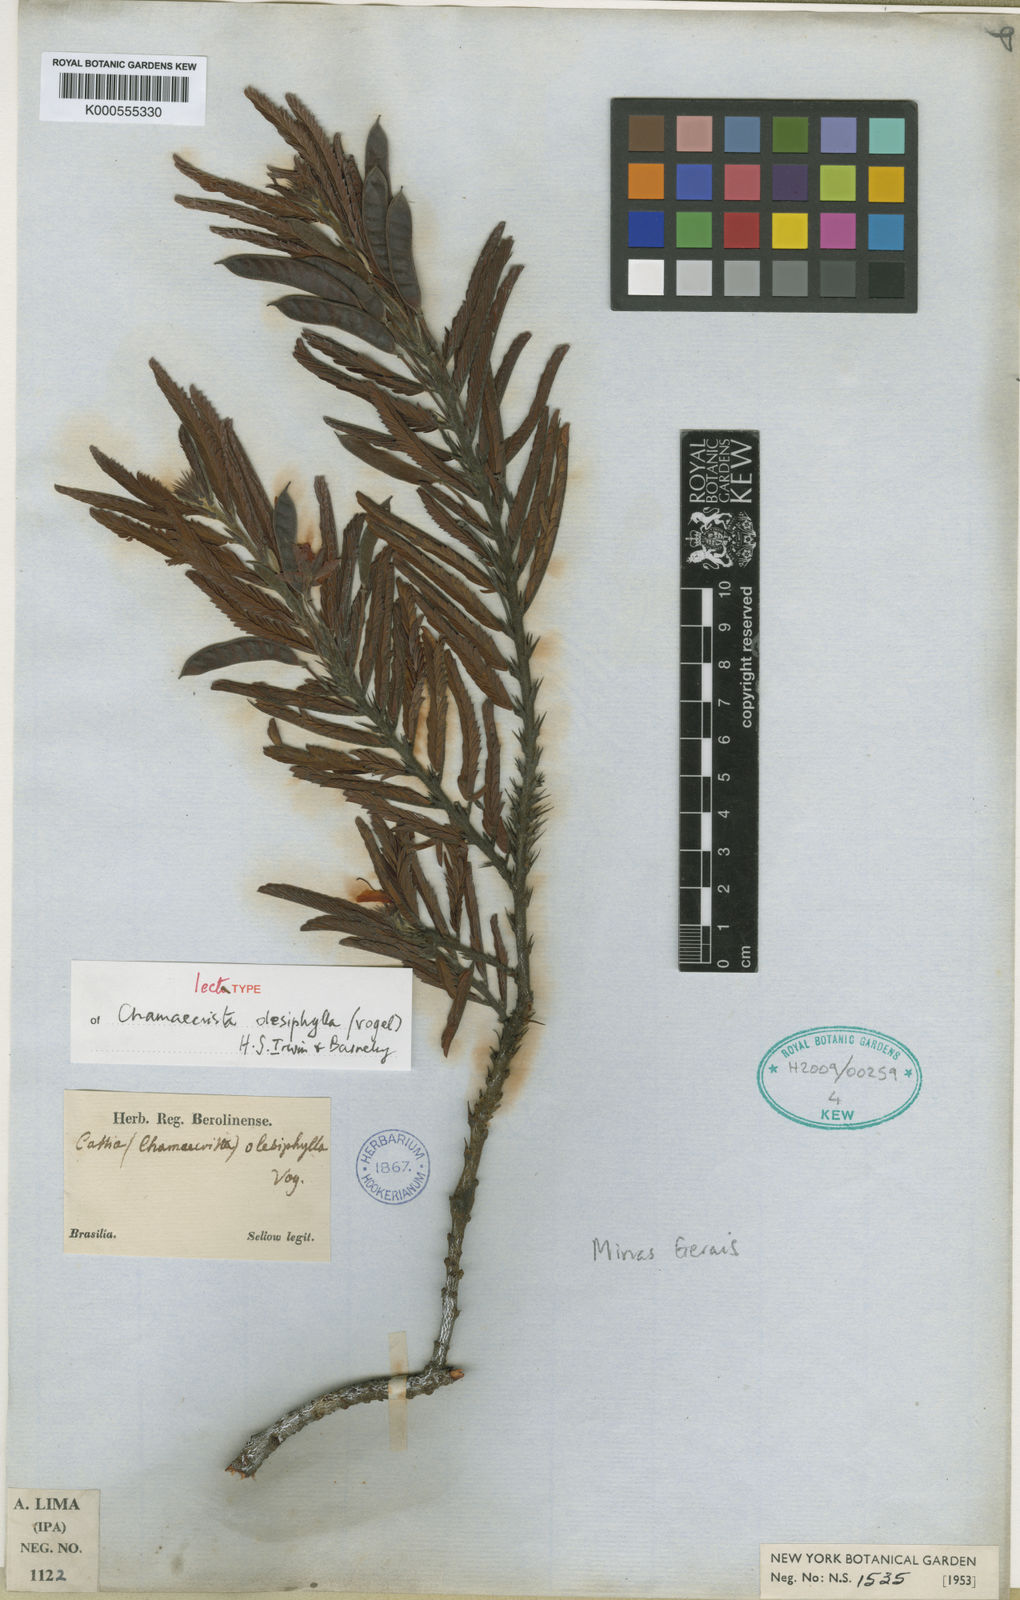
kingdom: Plantae
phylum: Tracheophyta
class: Magnoliopsida
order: Fabales
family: Fabaceae
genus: Chamaecrista
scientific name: Chamaecrista
